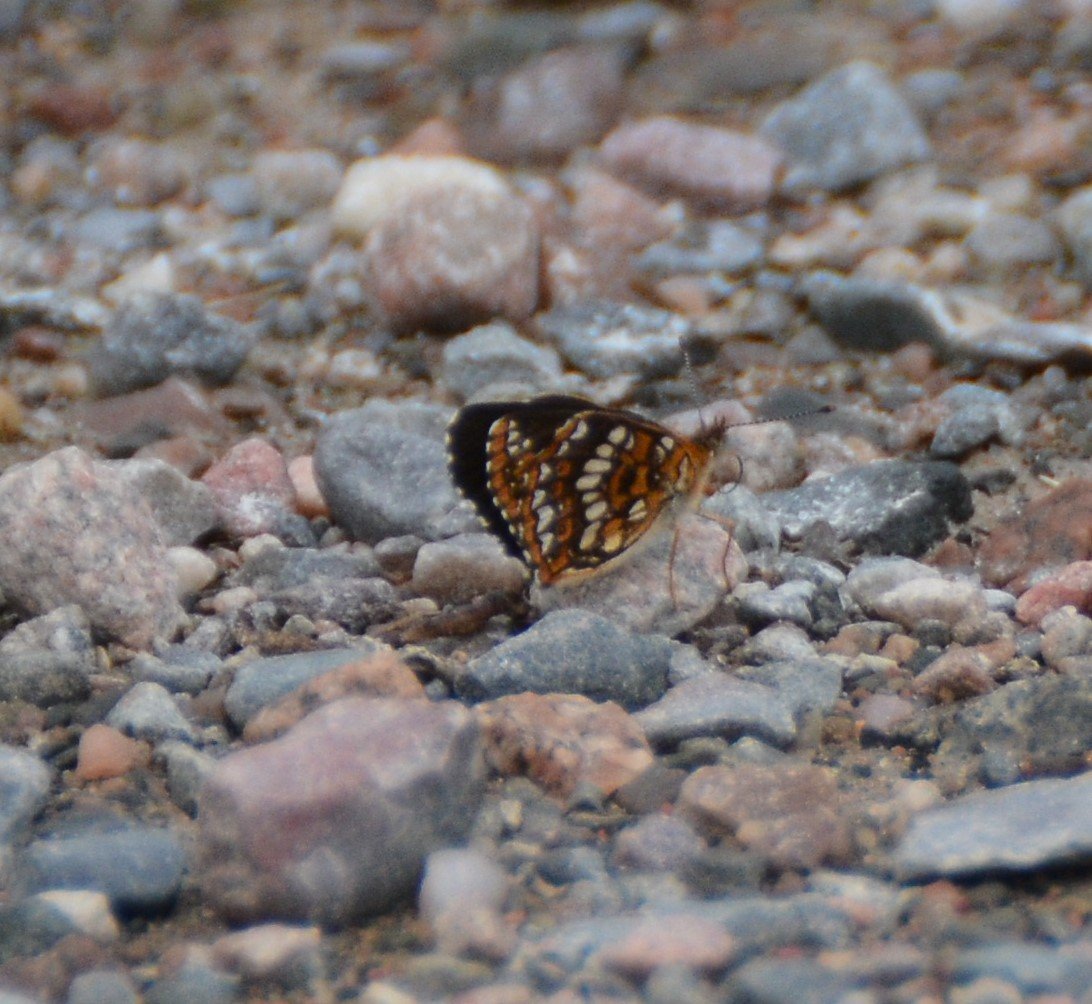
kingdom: Animalia
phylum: Arthropoda
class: Insecta
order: Lepidoptera
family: Nymphalidae
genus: Chlosyne
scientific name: Chlosyne harrisii
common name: Harris's Checkerspot
